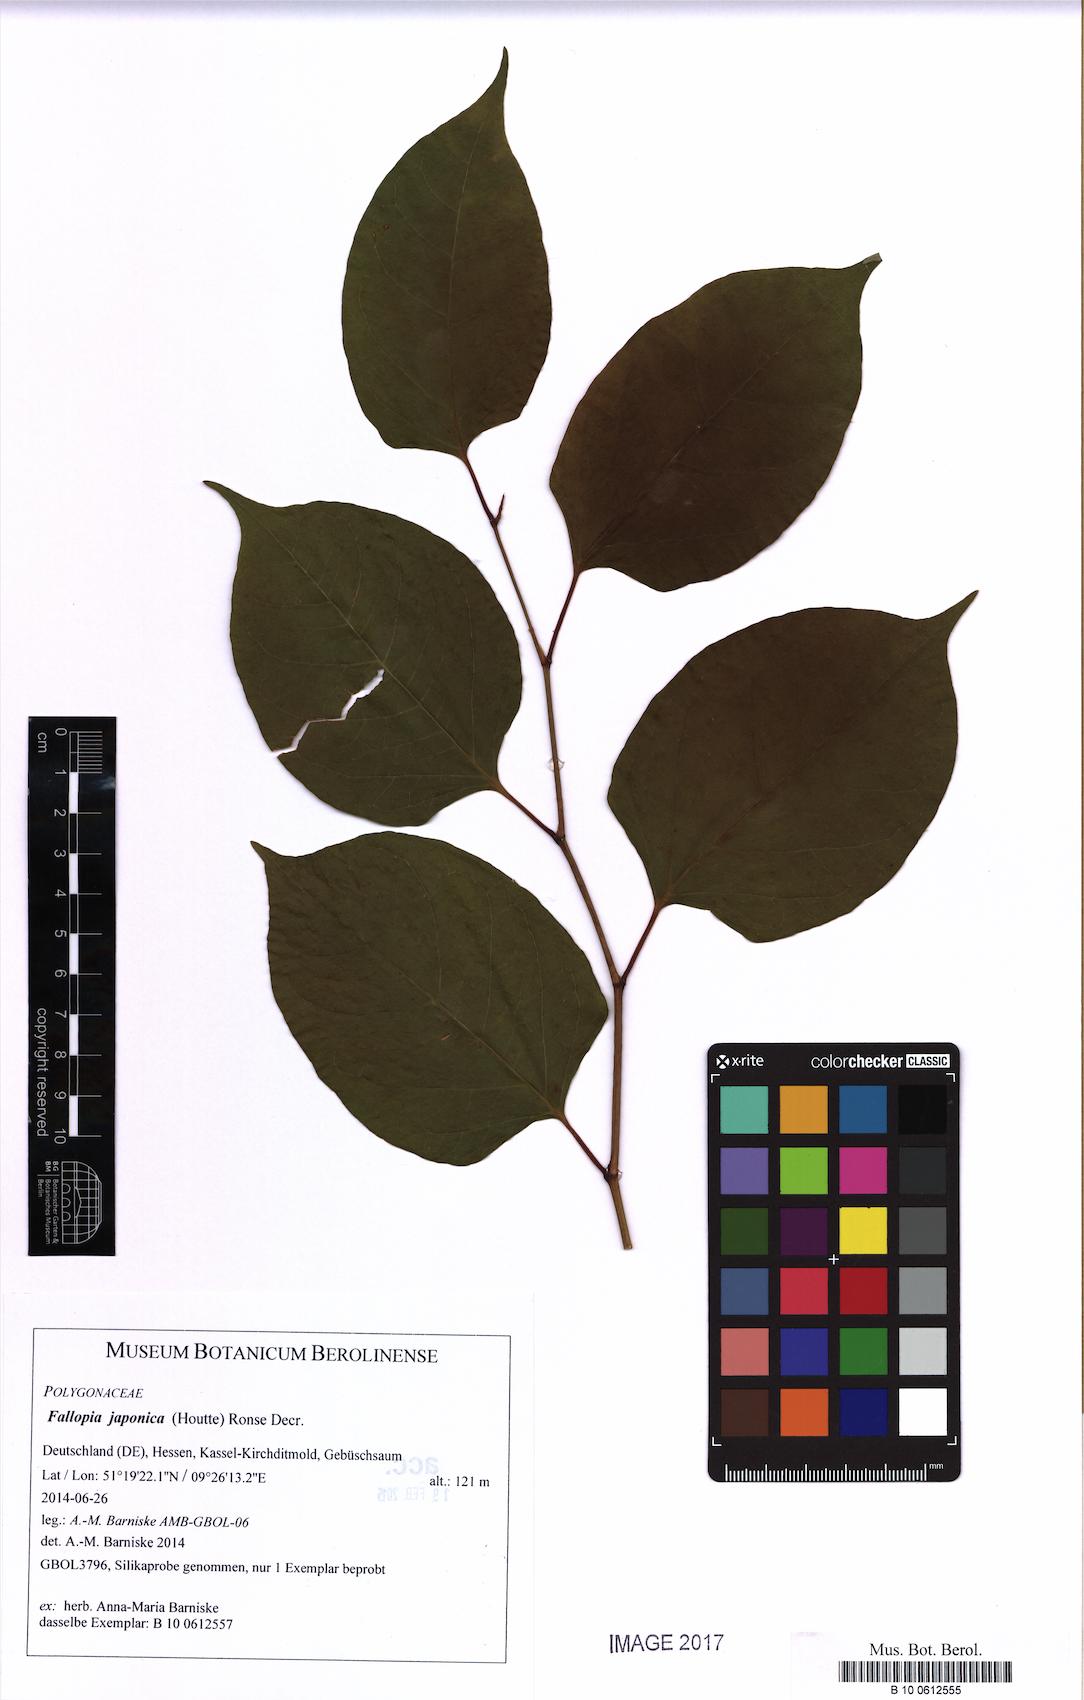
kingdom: Plantae
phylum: Tracheophyta
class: Magnoliopsida
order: Caryophyllales
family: Polygonaceae
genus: Reynoutria
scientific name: Reynoutria japonica
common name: Japanese knotweed
